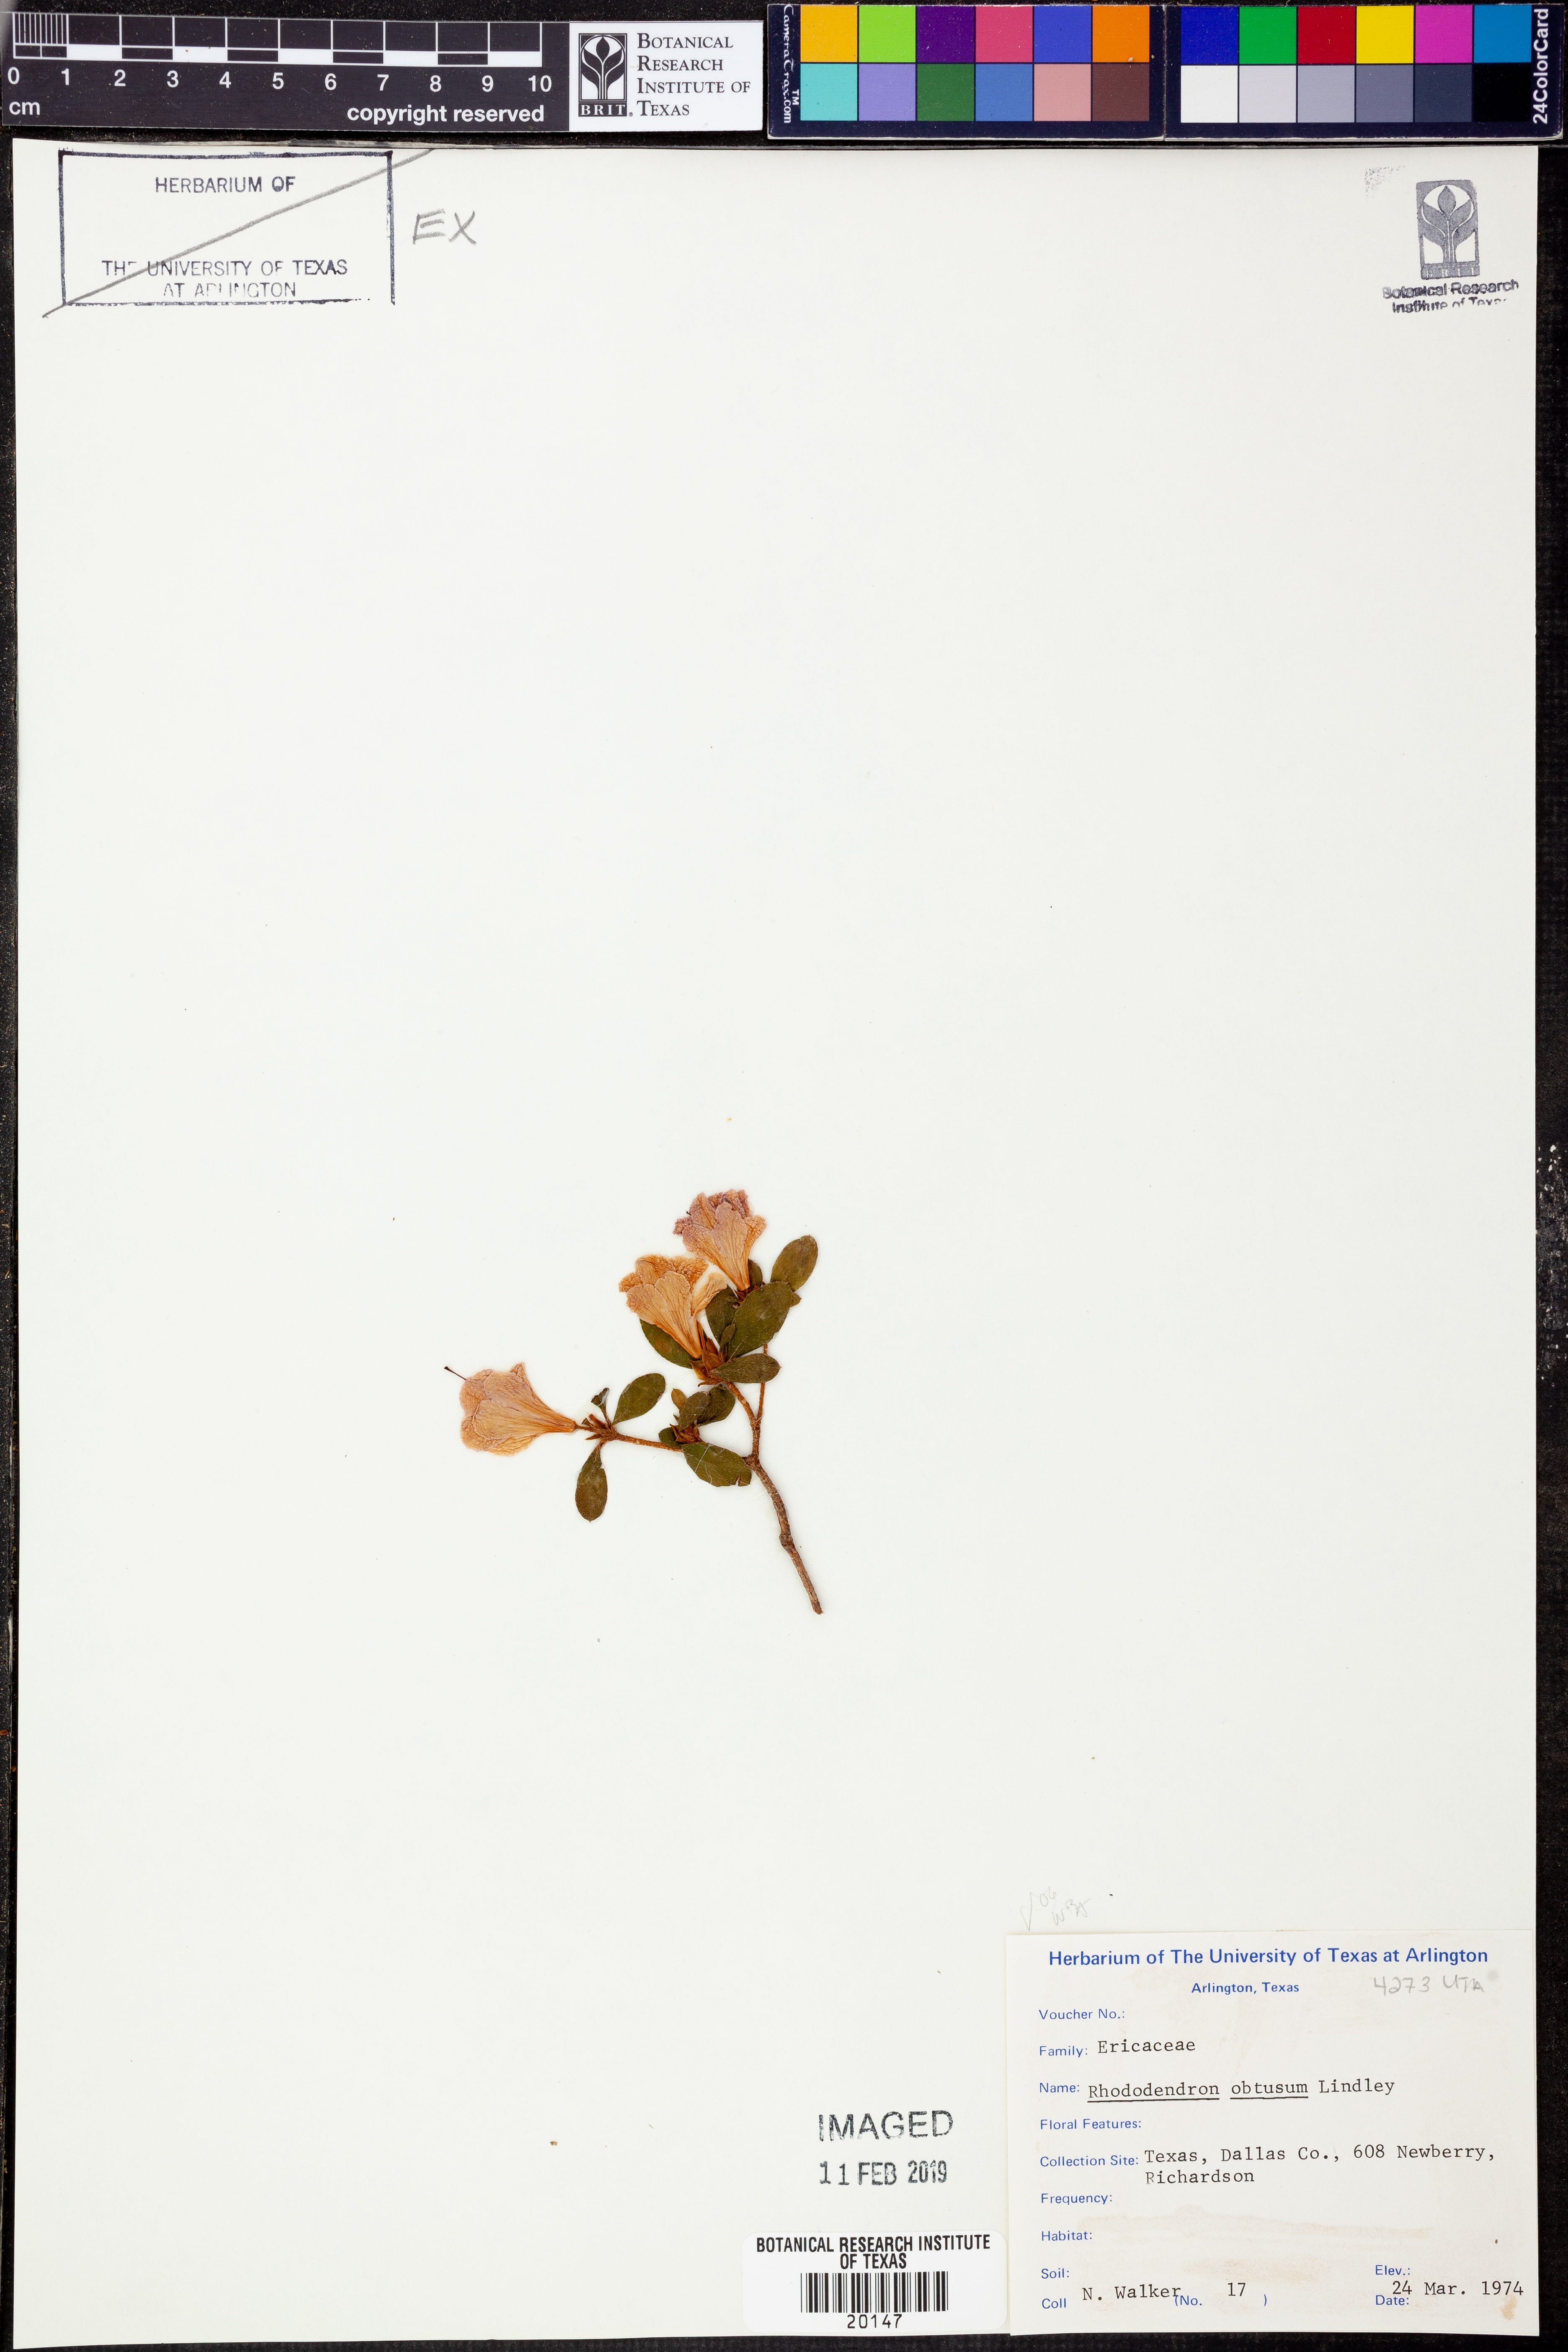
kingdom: Plantae
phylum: Tracheophyta
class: Magnoliopsida
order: Ericales
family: Ericaceae
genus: Rhododendron
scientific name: Rhododendron ponticum
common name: Rhododendron
